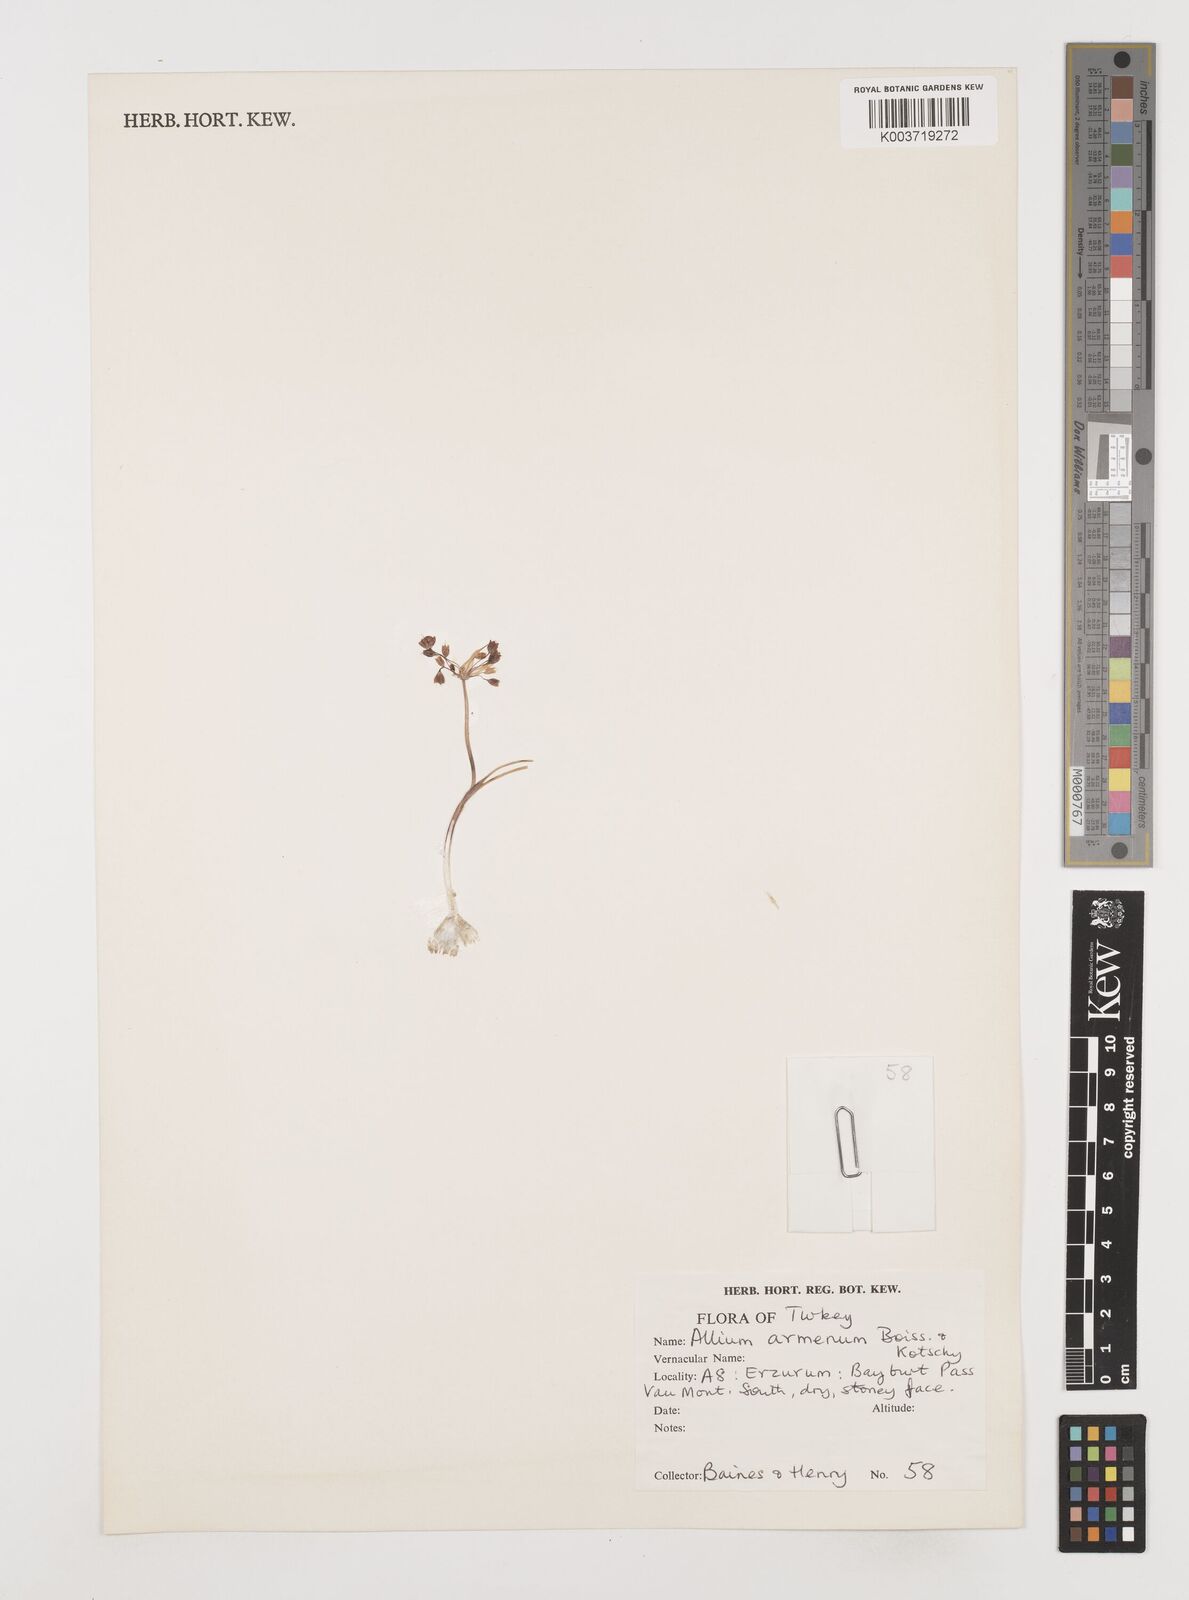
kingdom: Plantae
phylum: Tracheophyta
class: Liliopsida
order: Asparagales
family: Amaryllidaceae
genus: Allium
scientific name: Allium armenum
